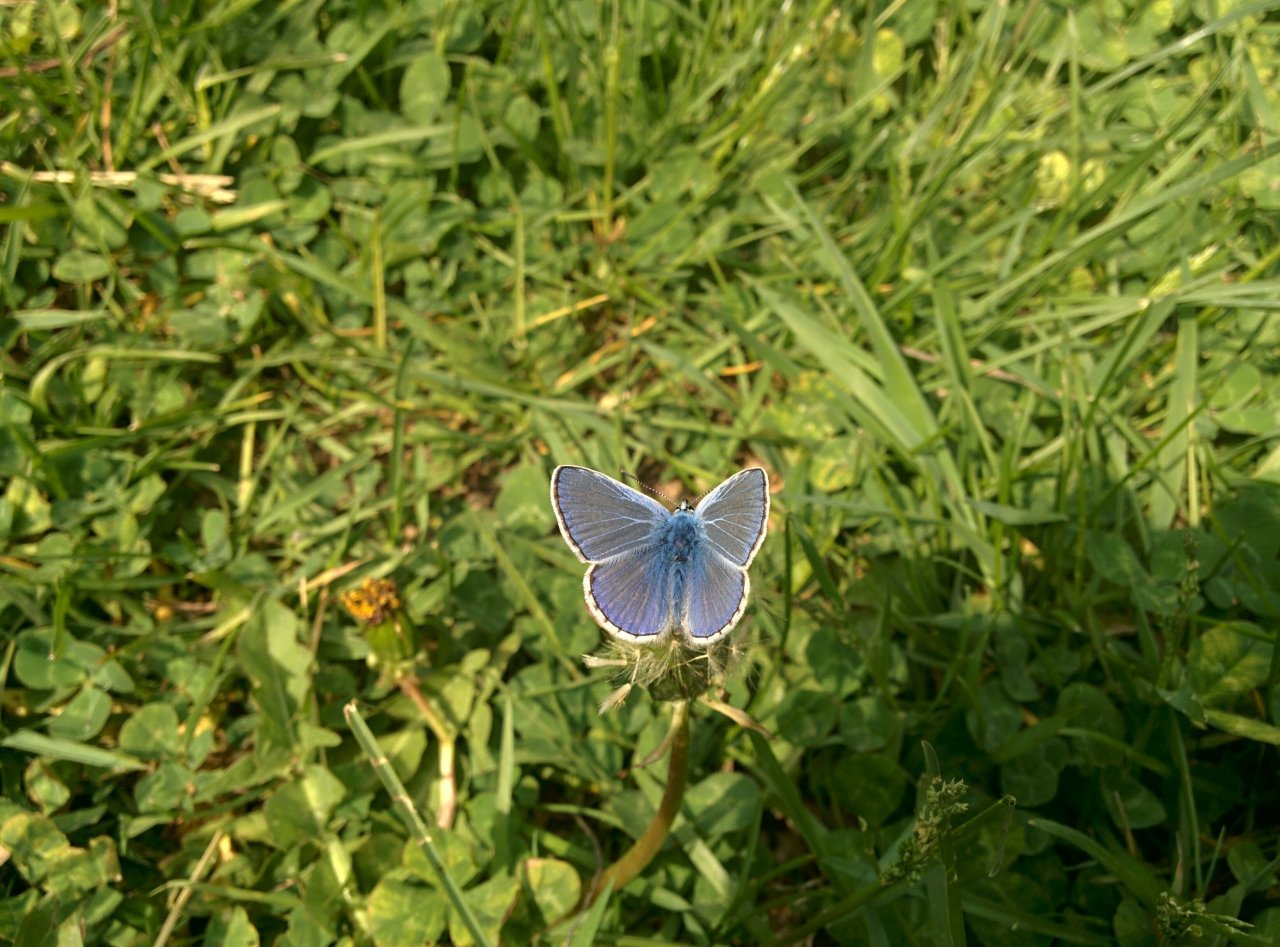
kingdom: Animalia
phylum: Arthropoda
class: Insecta
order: Lepidoptera
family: Lycaenidae
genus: Polyommatus
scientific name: Polyommatus icarus
